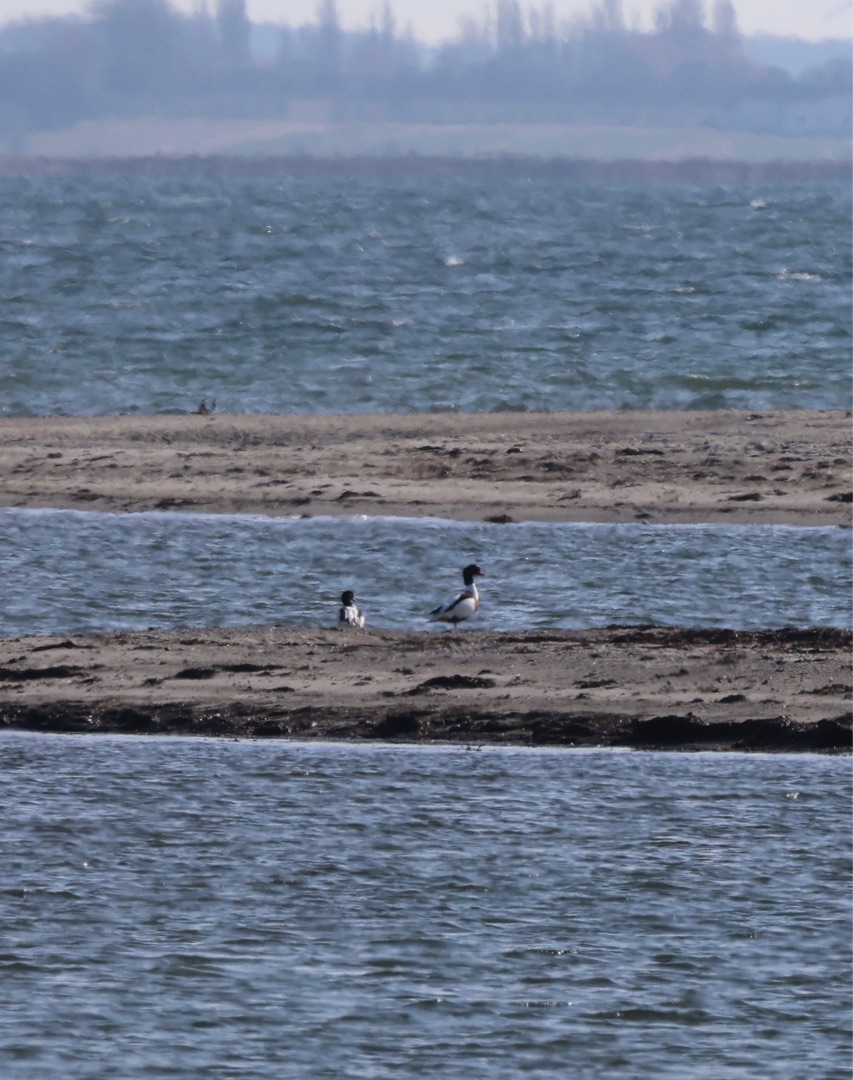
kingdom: Animalia
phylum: Chordata
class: Aves
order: Anseriformes
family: Anatidae
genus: Tadorna
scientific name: Tadorna tadorna
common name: Gravand
